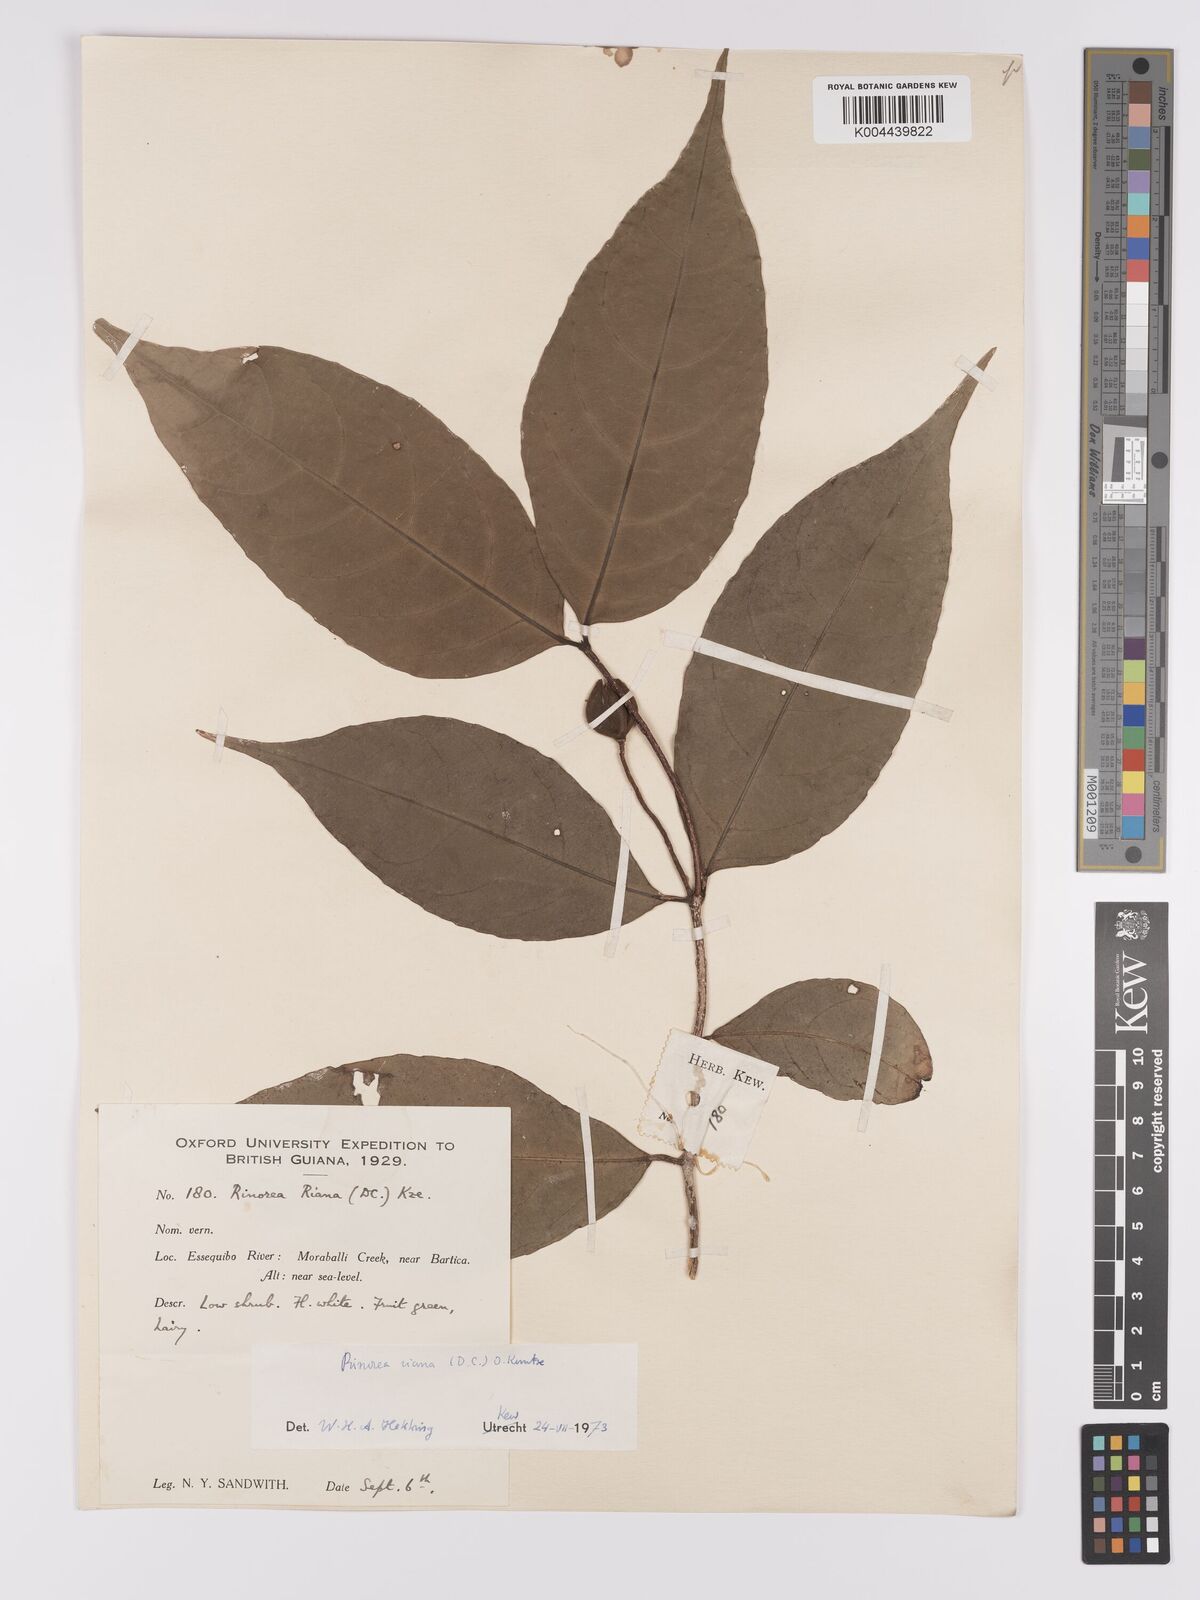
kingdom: Plantae
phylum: Tracheophyta
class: Magnoliopsida
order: Malpighiales
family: Violaceae
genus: Rinorea
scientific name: Rinorea riana
